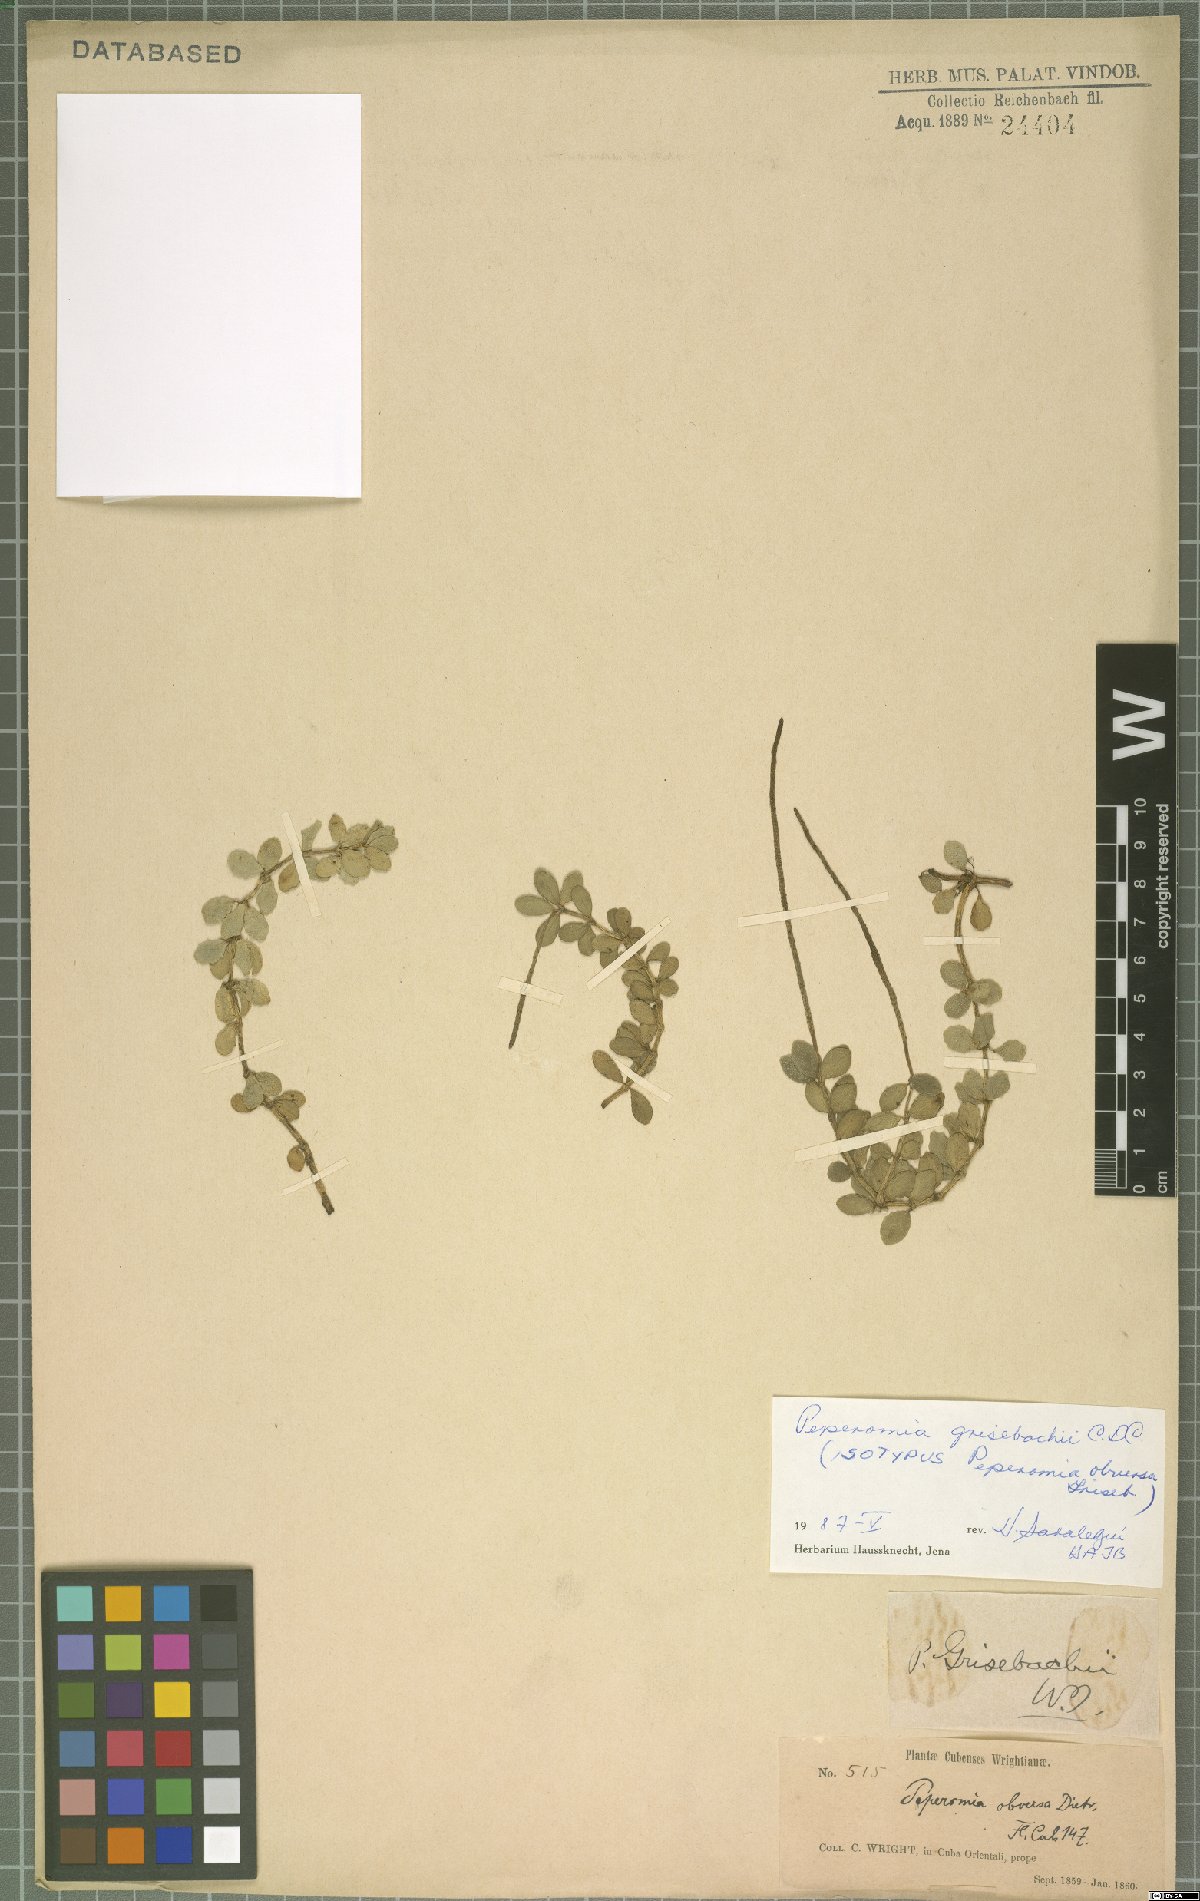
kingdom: Plantae
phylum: Tracheophyta
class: Magnoliopsida
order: Piperales
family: Piperaceae
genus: Peperomia
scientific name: Peperomia grisebachii
